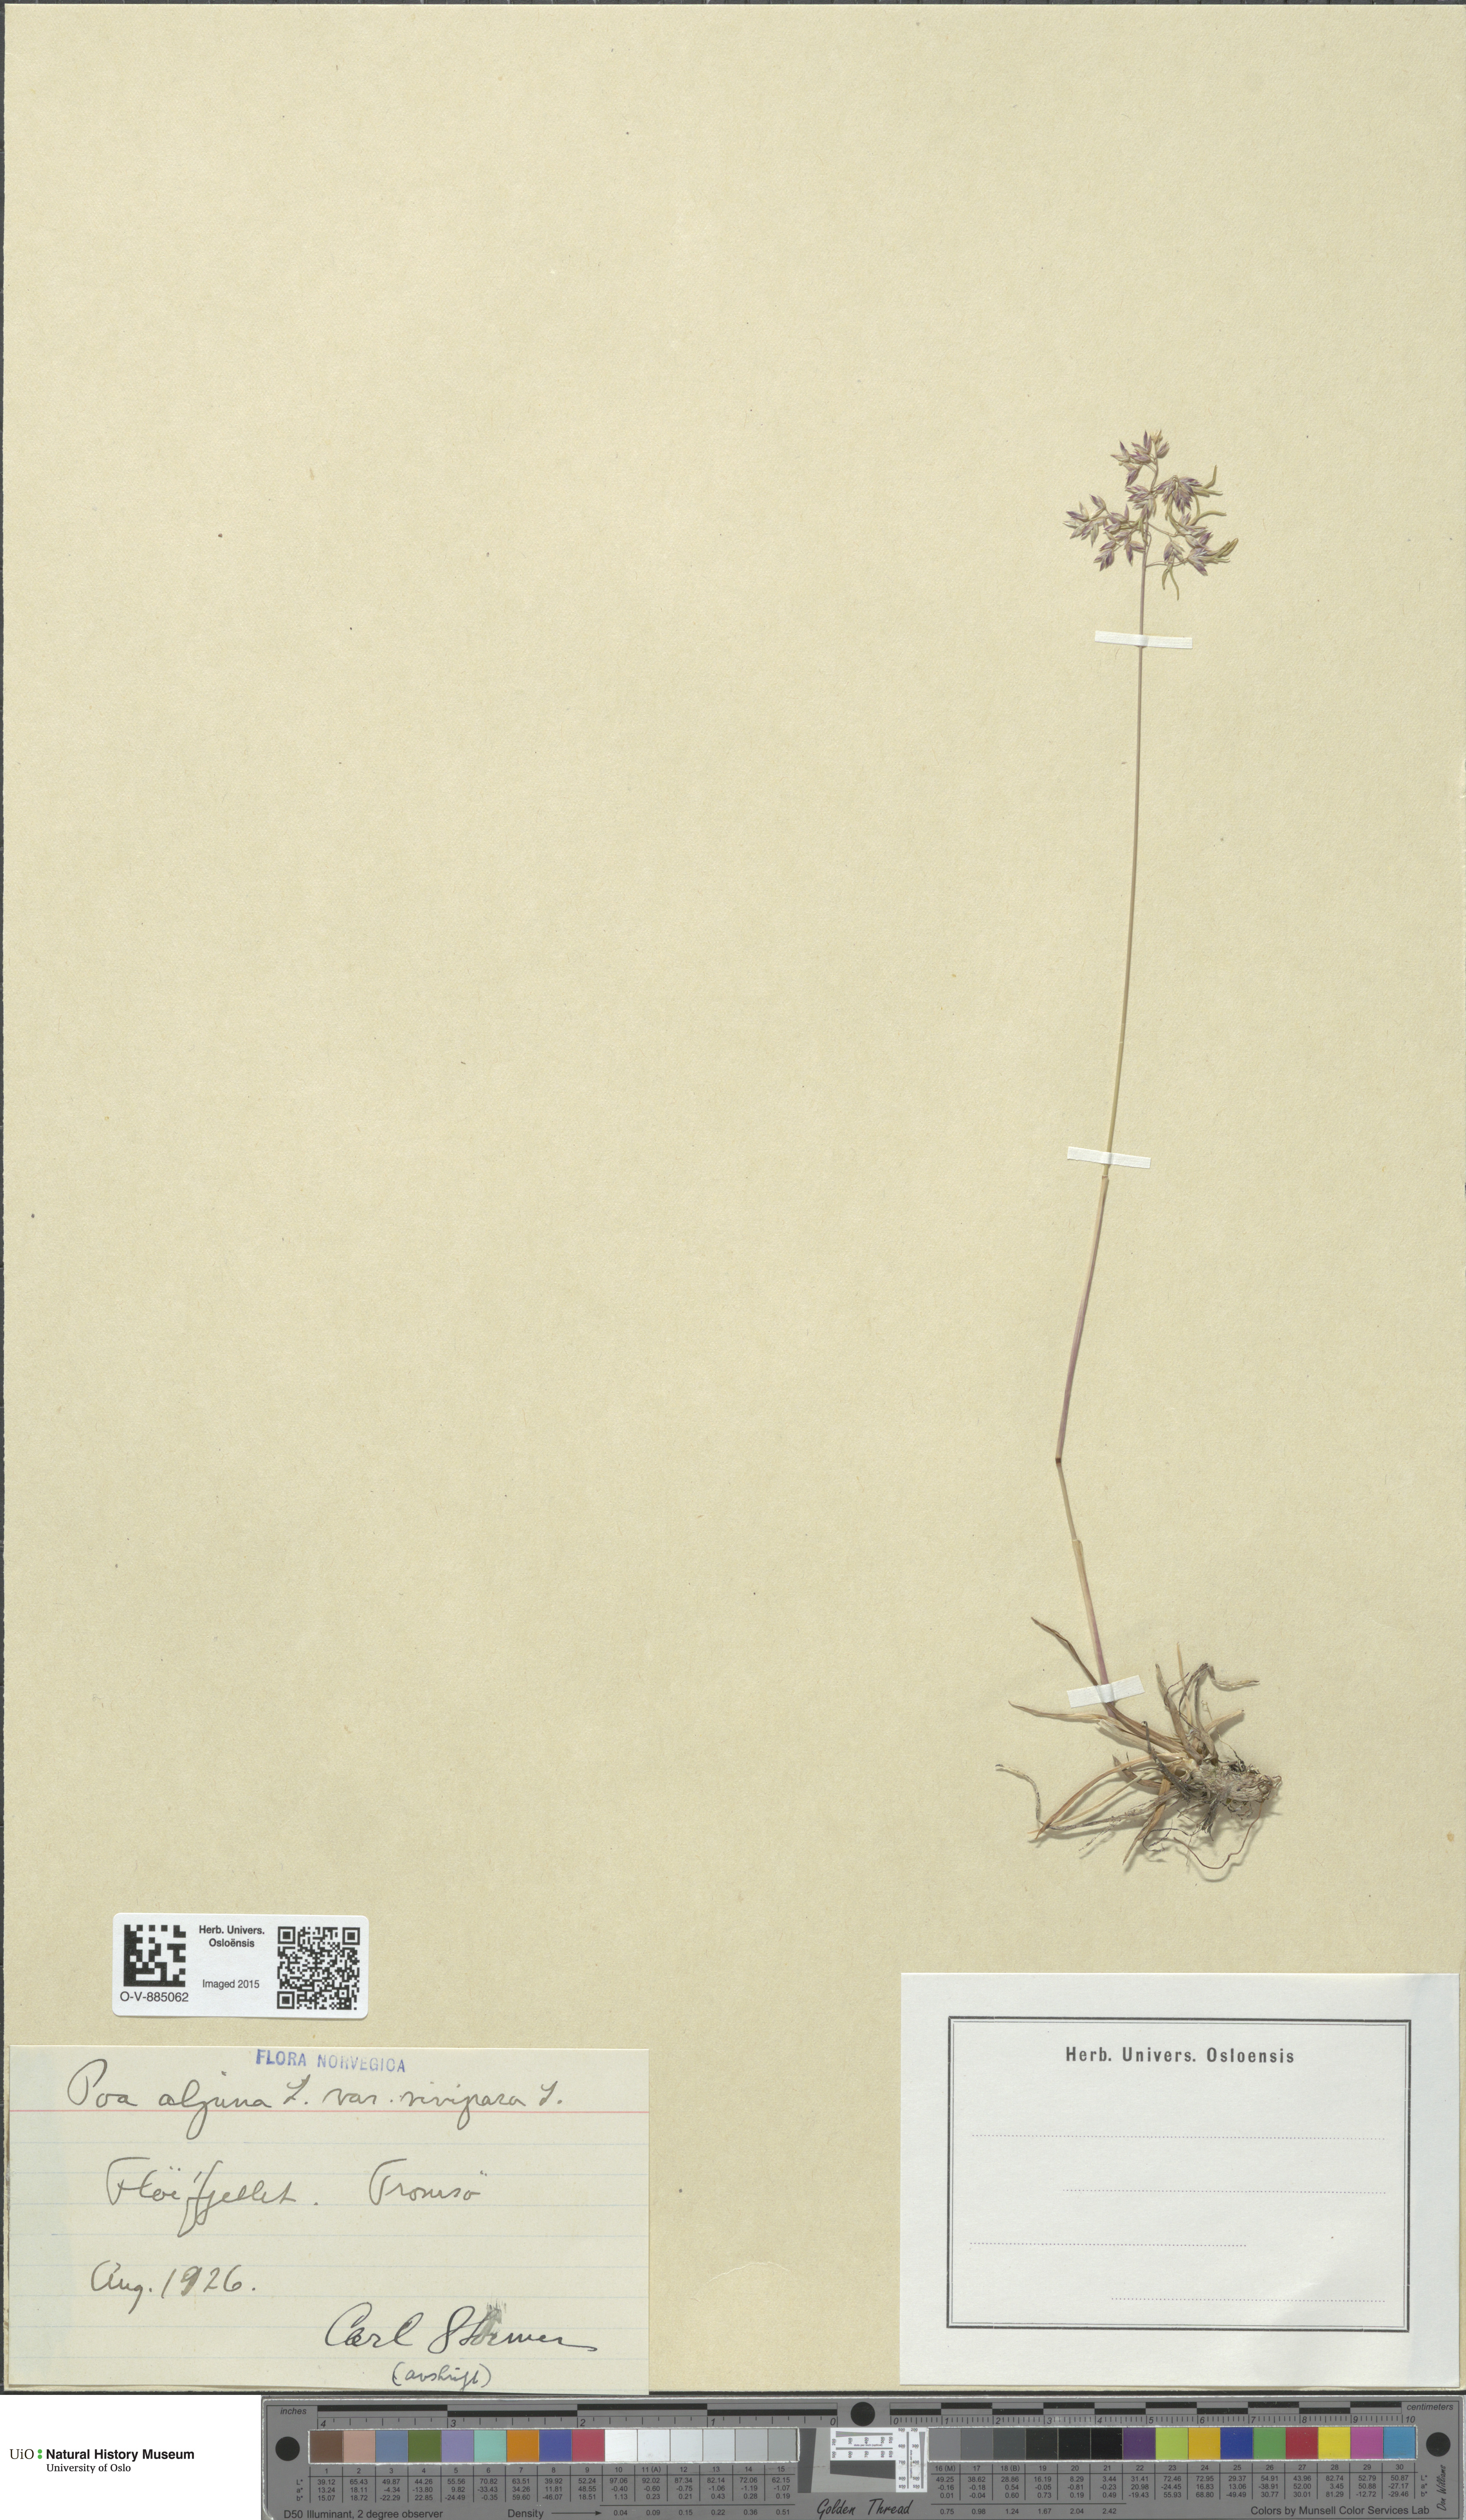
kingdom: Plantae
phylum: Tracheophyta
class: Liliopsida
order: Poales
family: Poaceae
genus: Poa
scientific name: Poa alpina
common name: Alpine bluegrass
